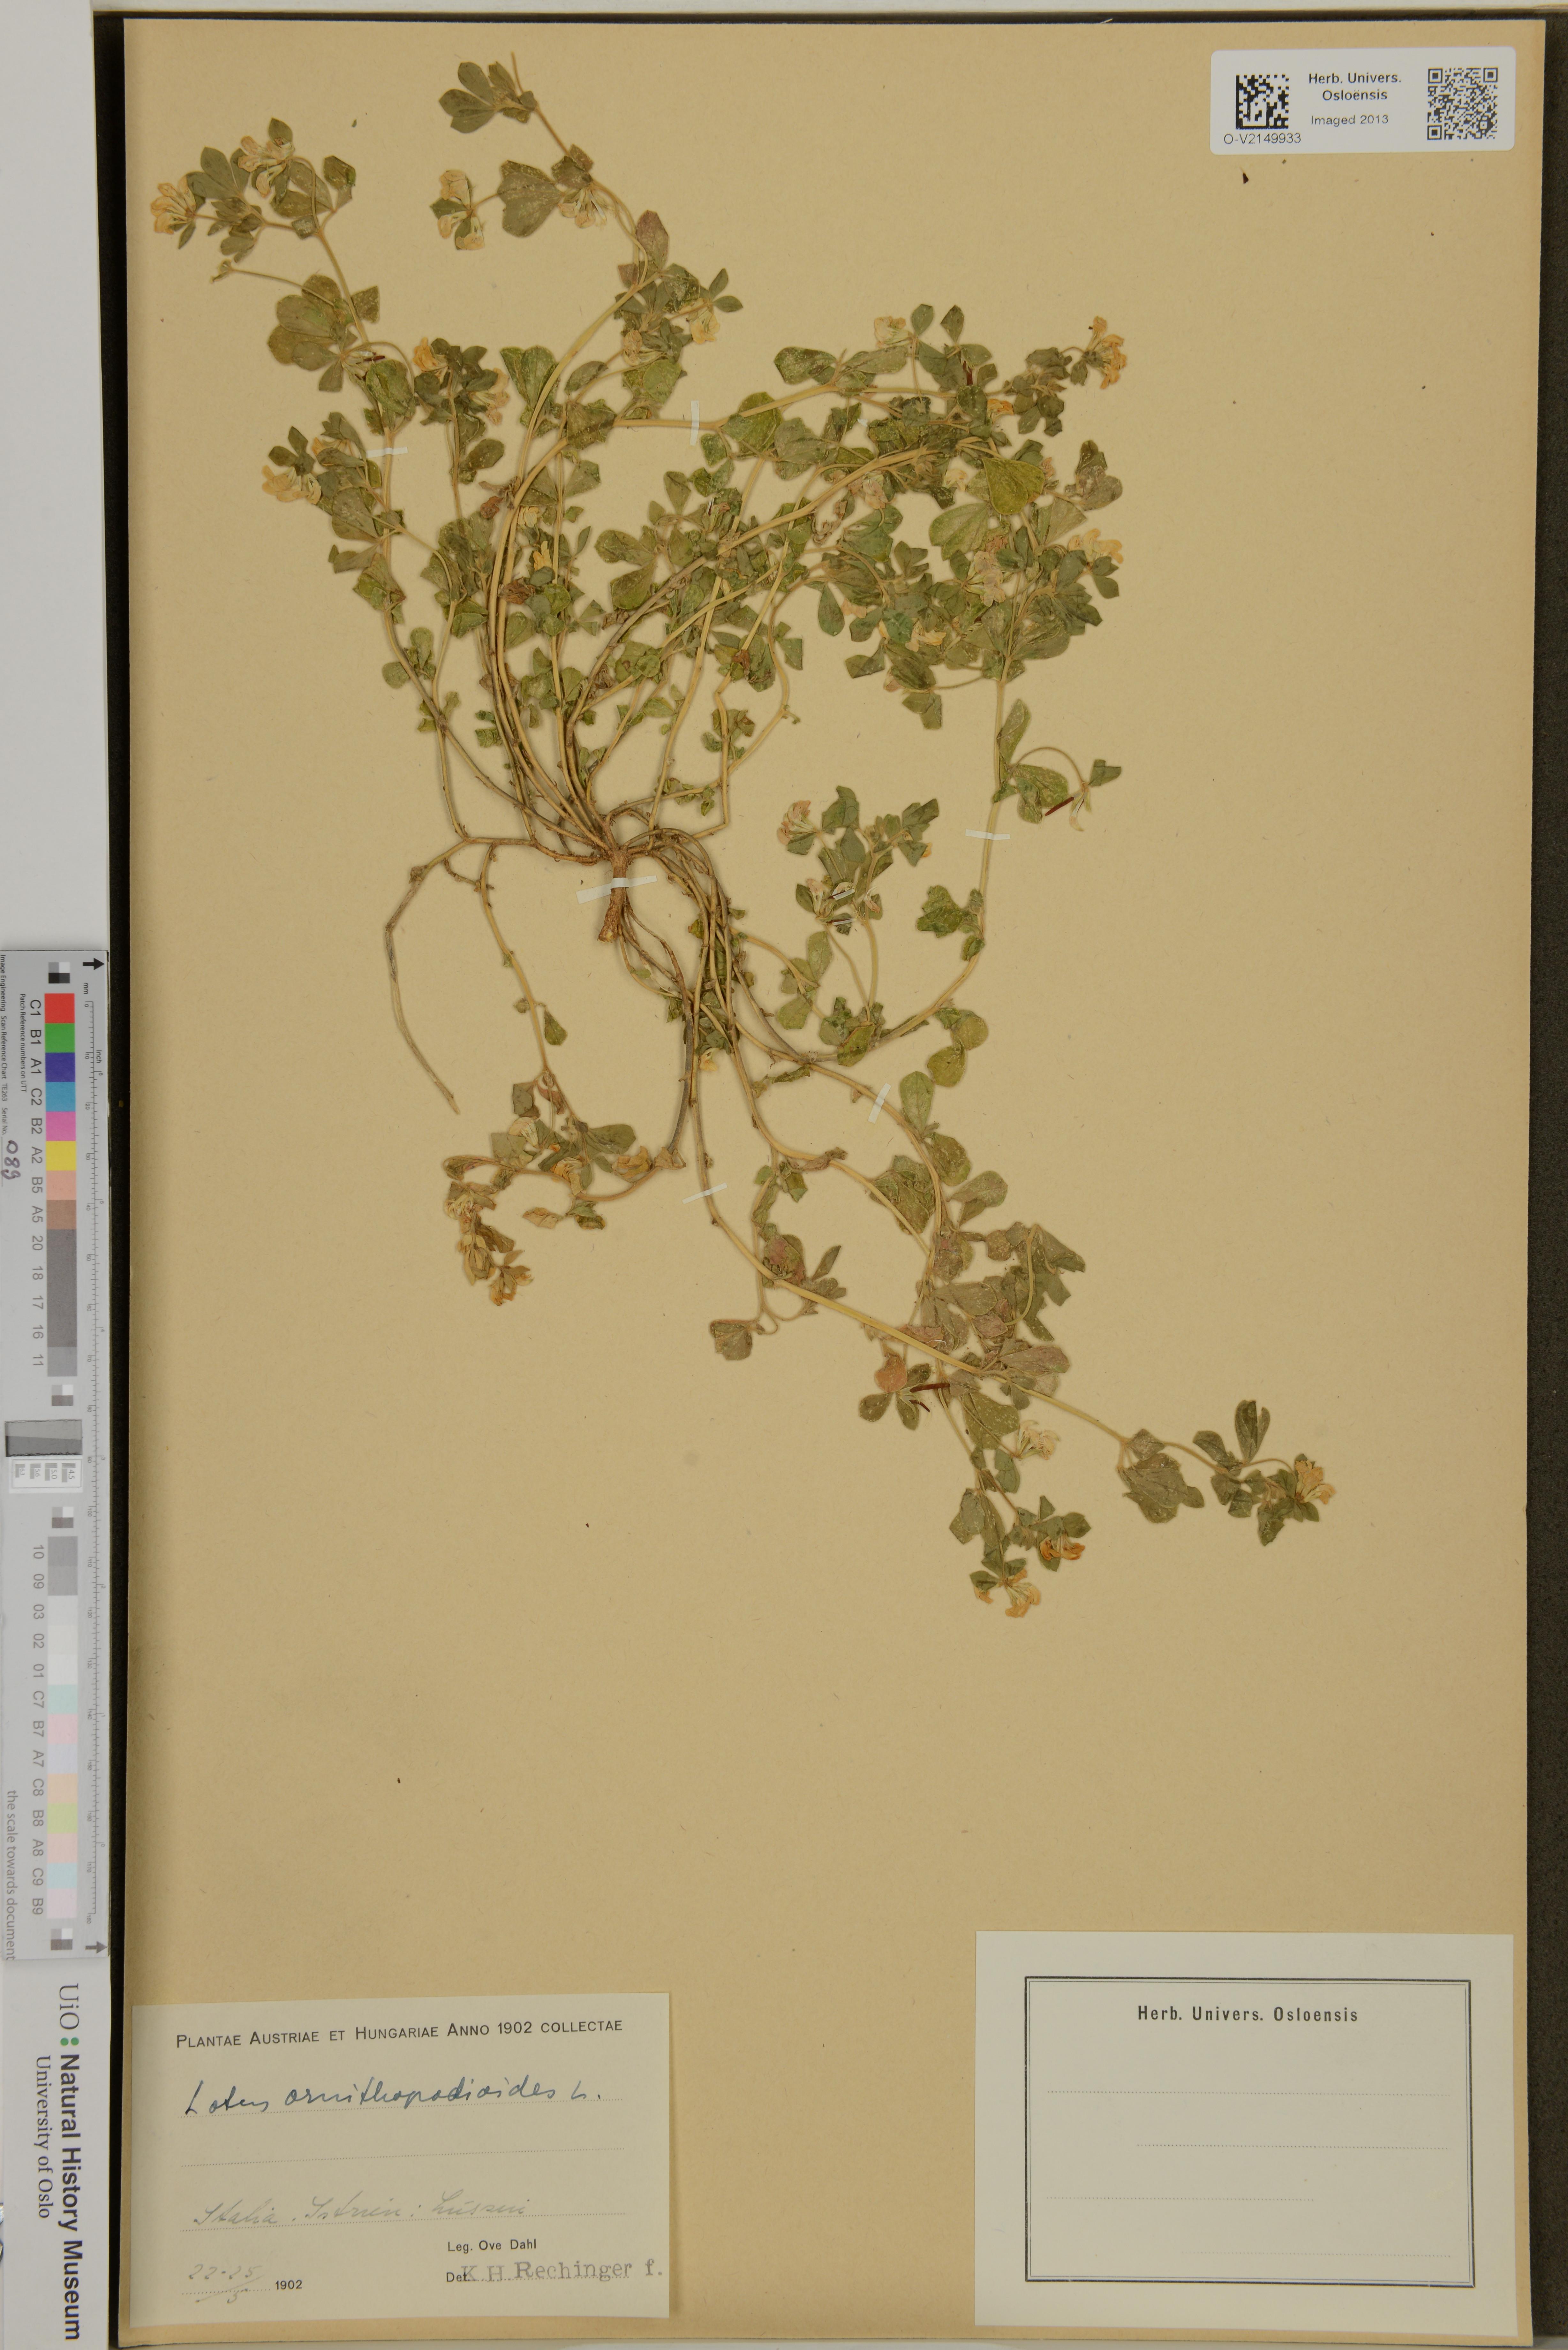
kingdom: Plantae
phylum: Tracheophyta
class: Magnoliopsida
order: Fabales
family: Fabaceae
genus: Lotus
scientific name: Lotus ornithopodioides
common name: Southern bird's-foot trefoil
